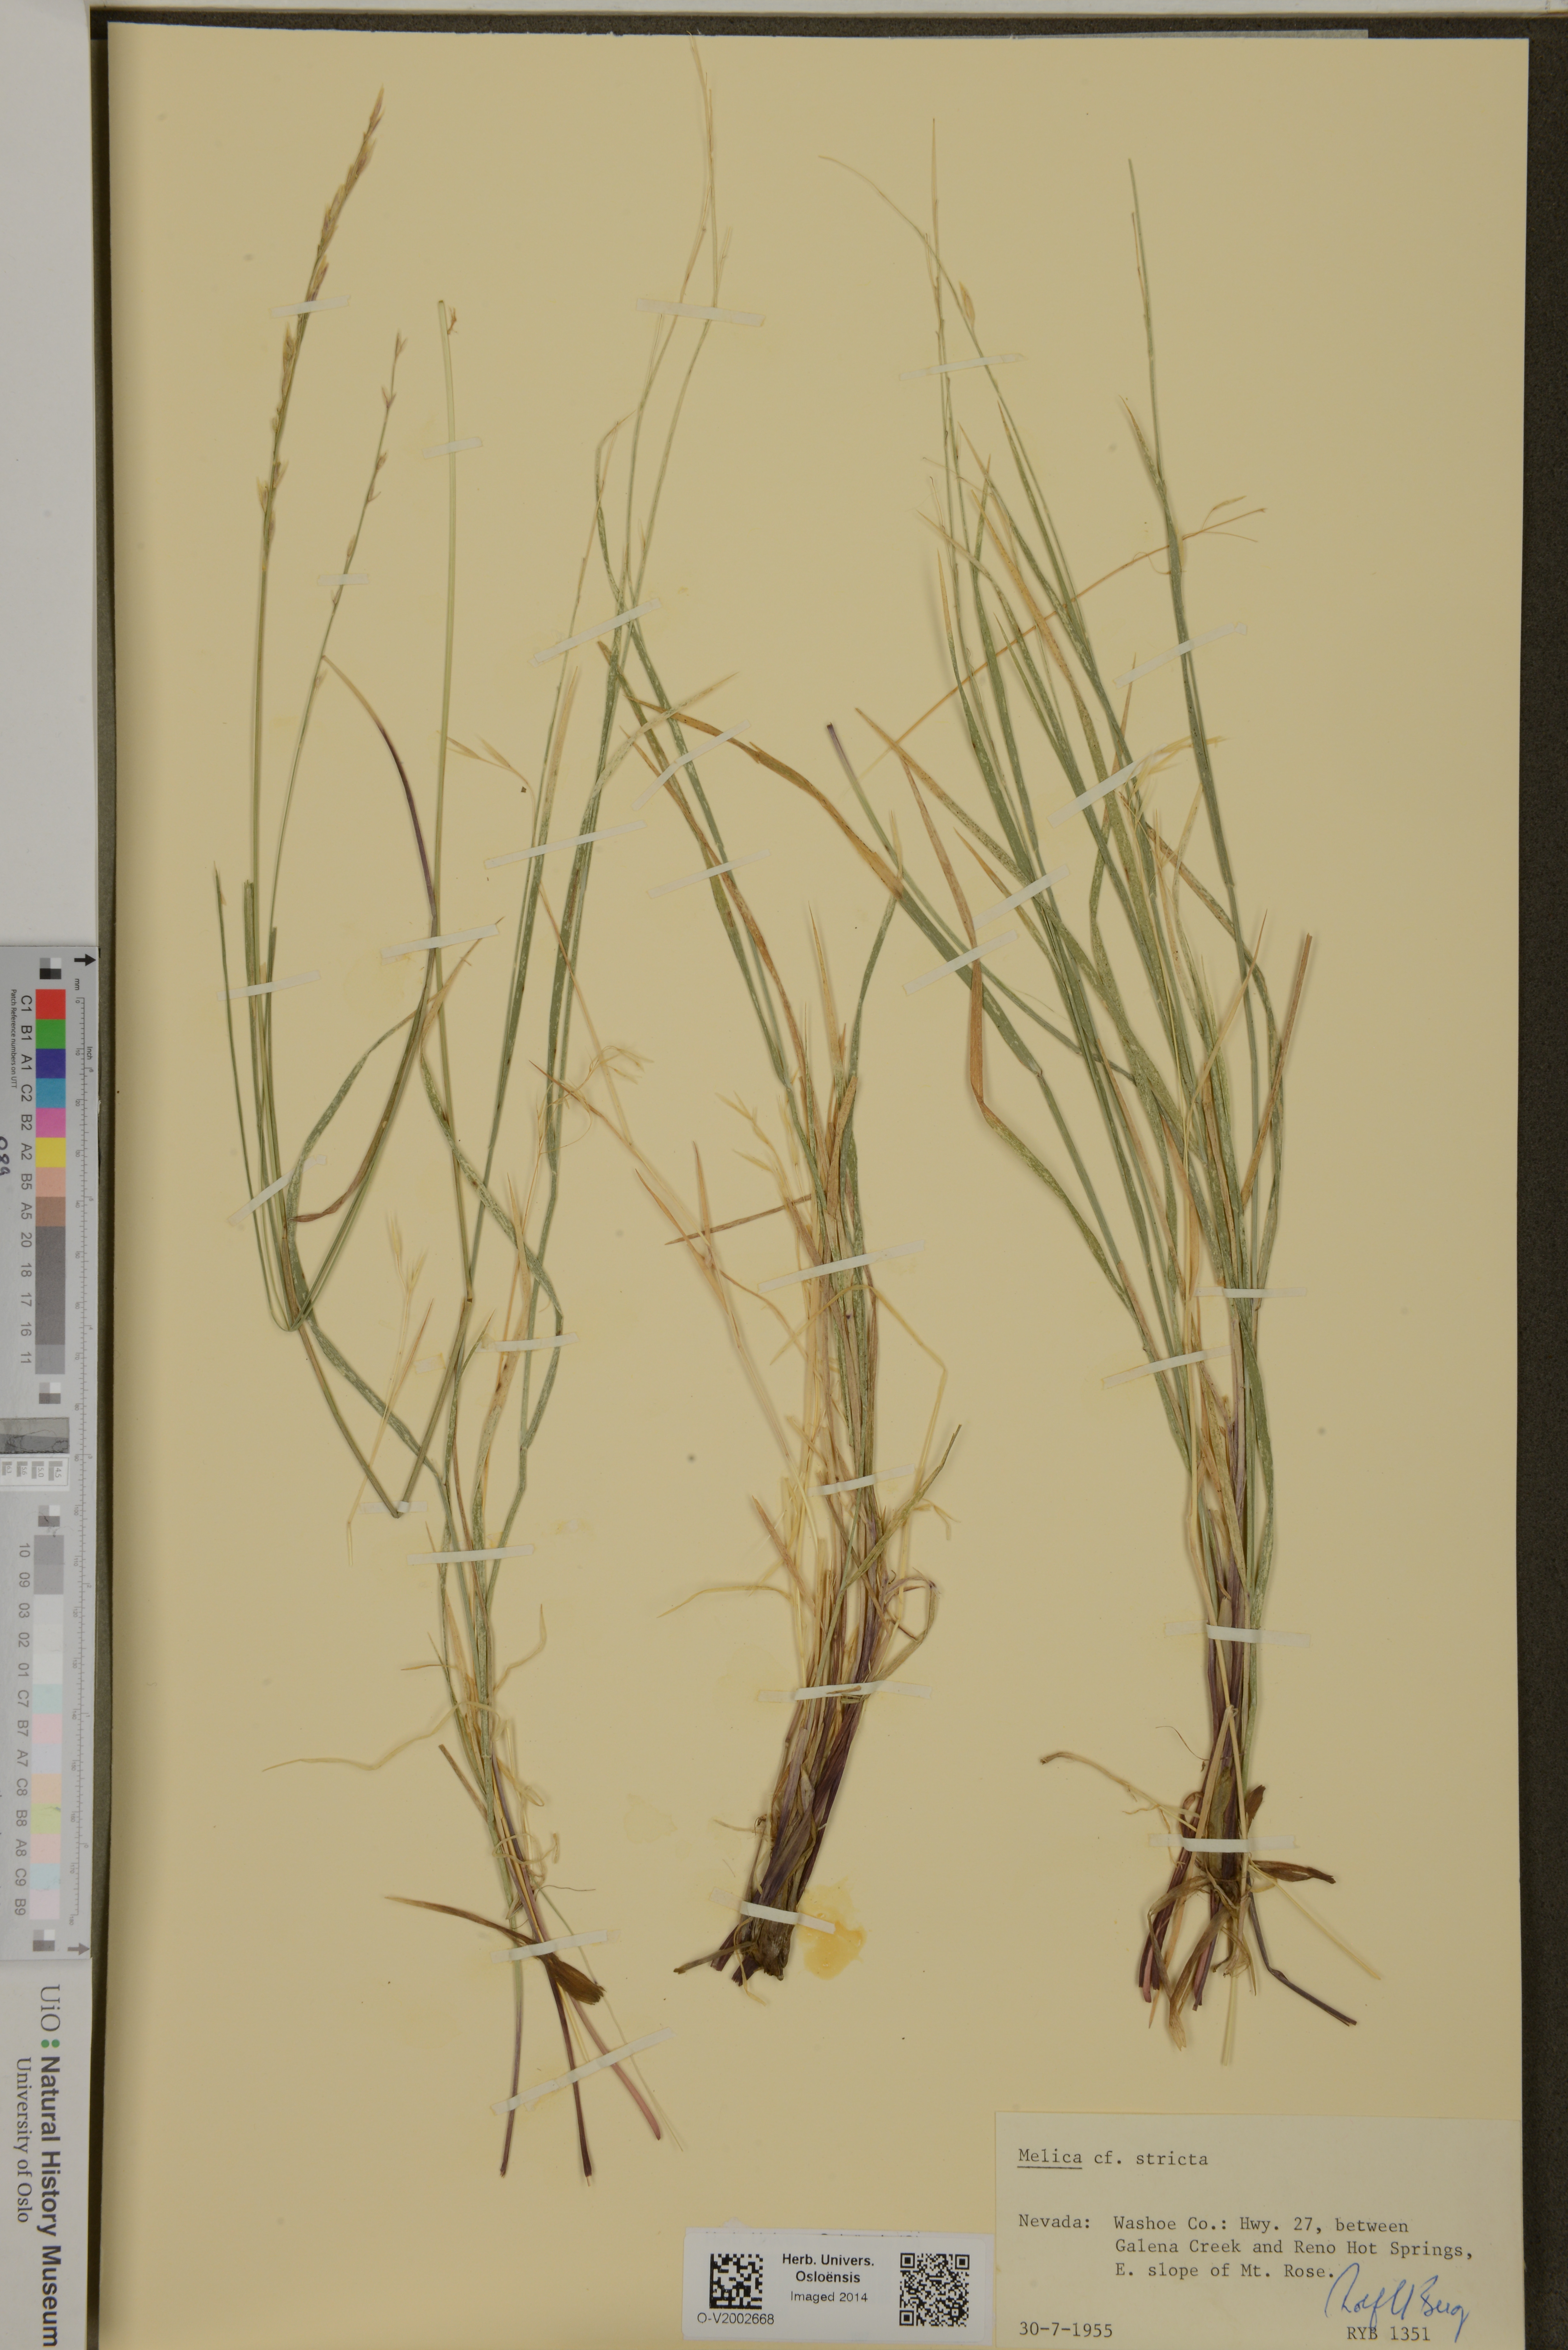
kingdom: Plantae
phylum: Tracheophyta
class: Liliopsida
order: Poales
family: Poaceae
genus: Melica
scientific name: Melica stricta
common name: Rock melic
